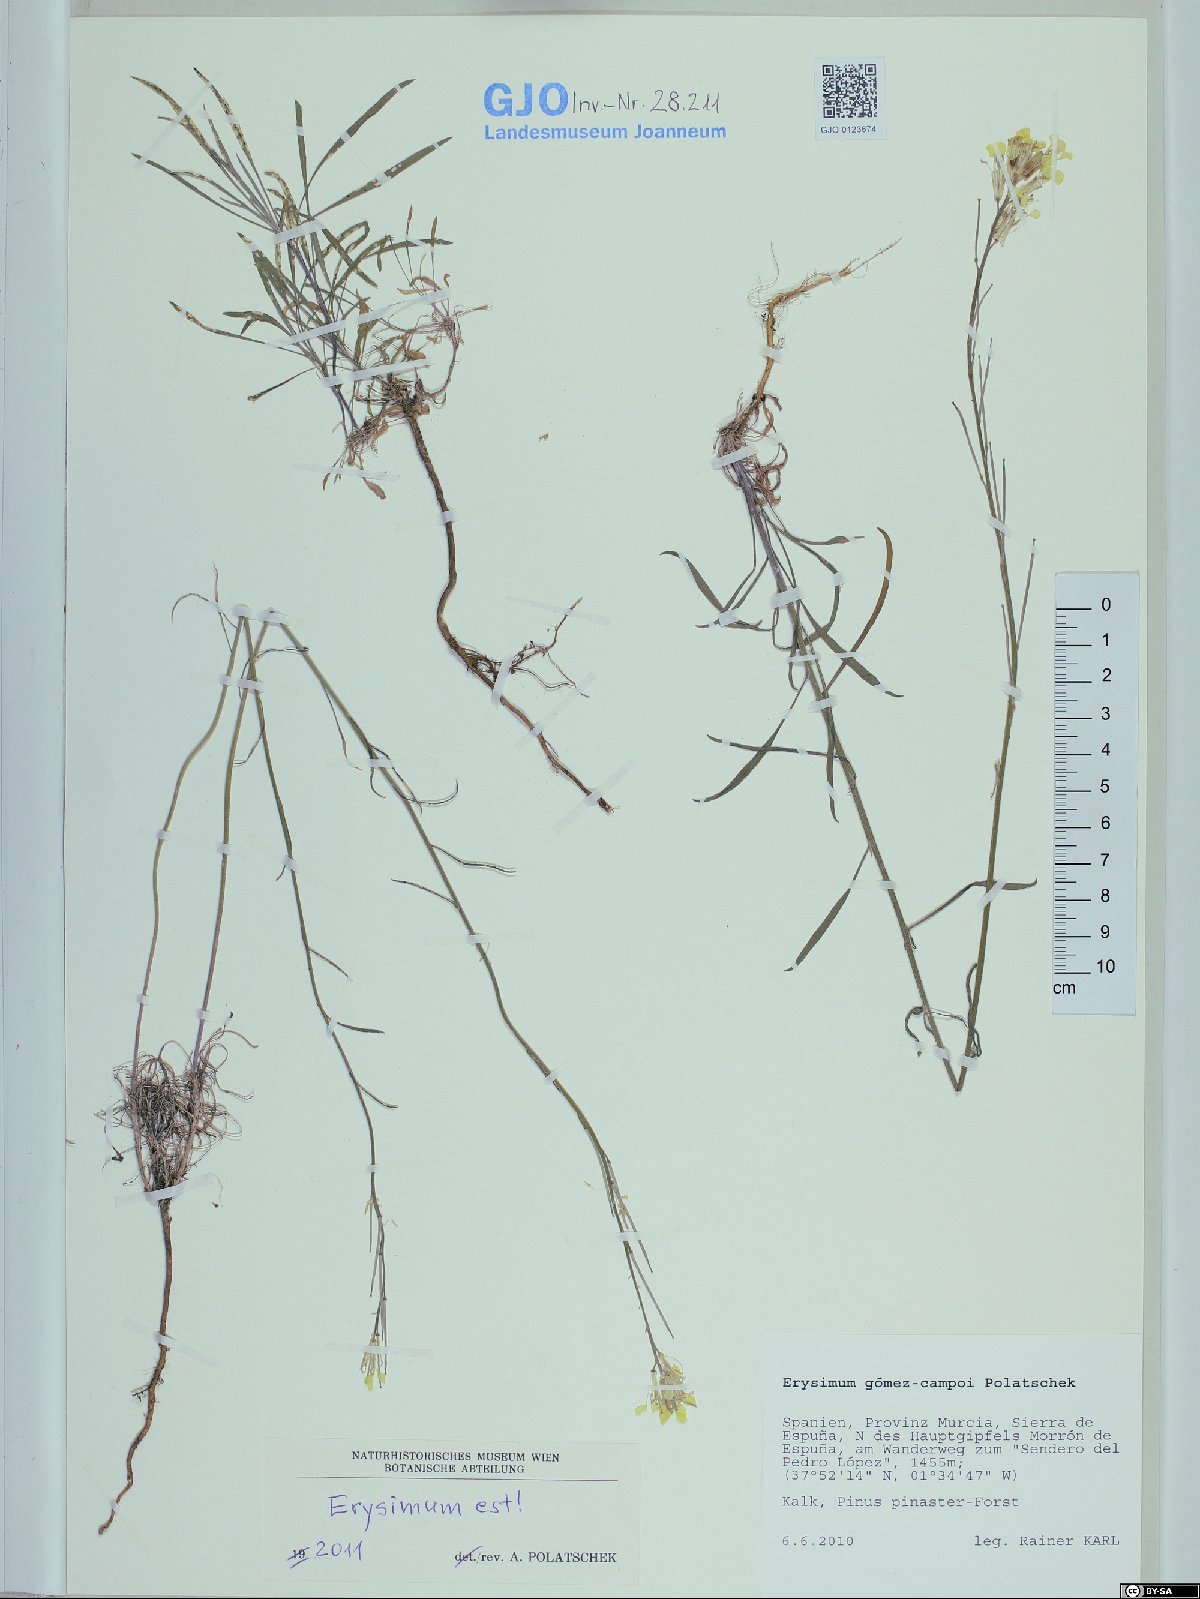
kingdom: Plantae
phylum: Tracheophyta
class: Magnoliopsida
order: Brassicales
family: Brassicaceae
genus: Erysimum
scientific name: Erysimum nevadense
